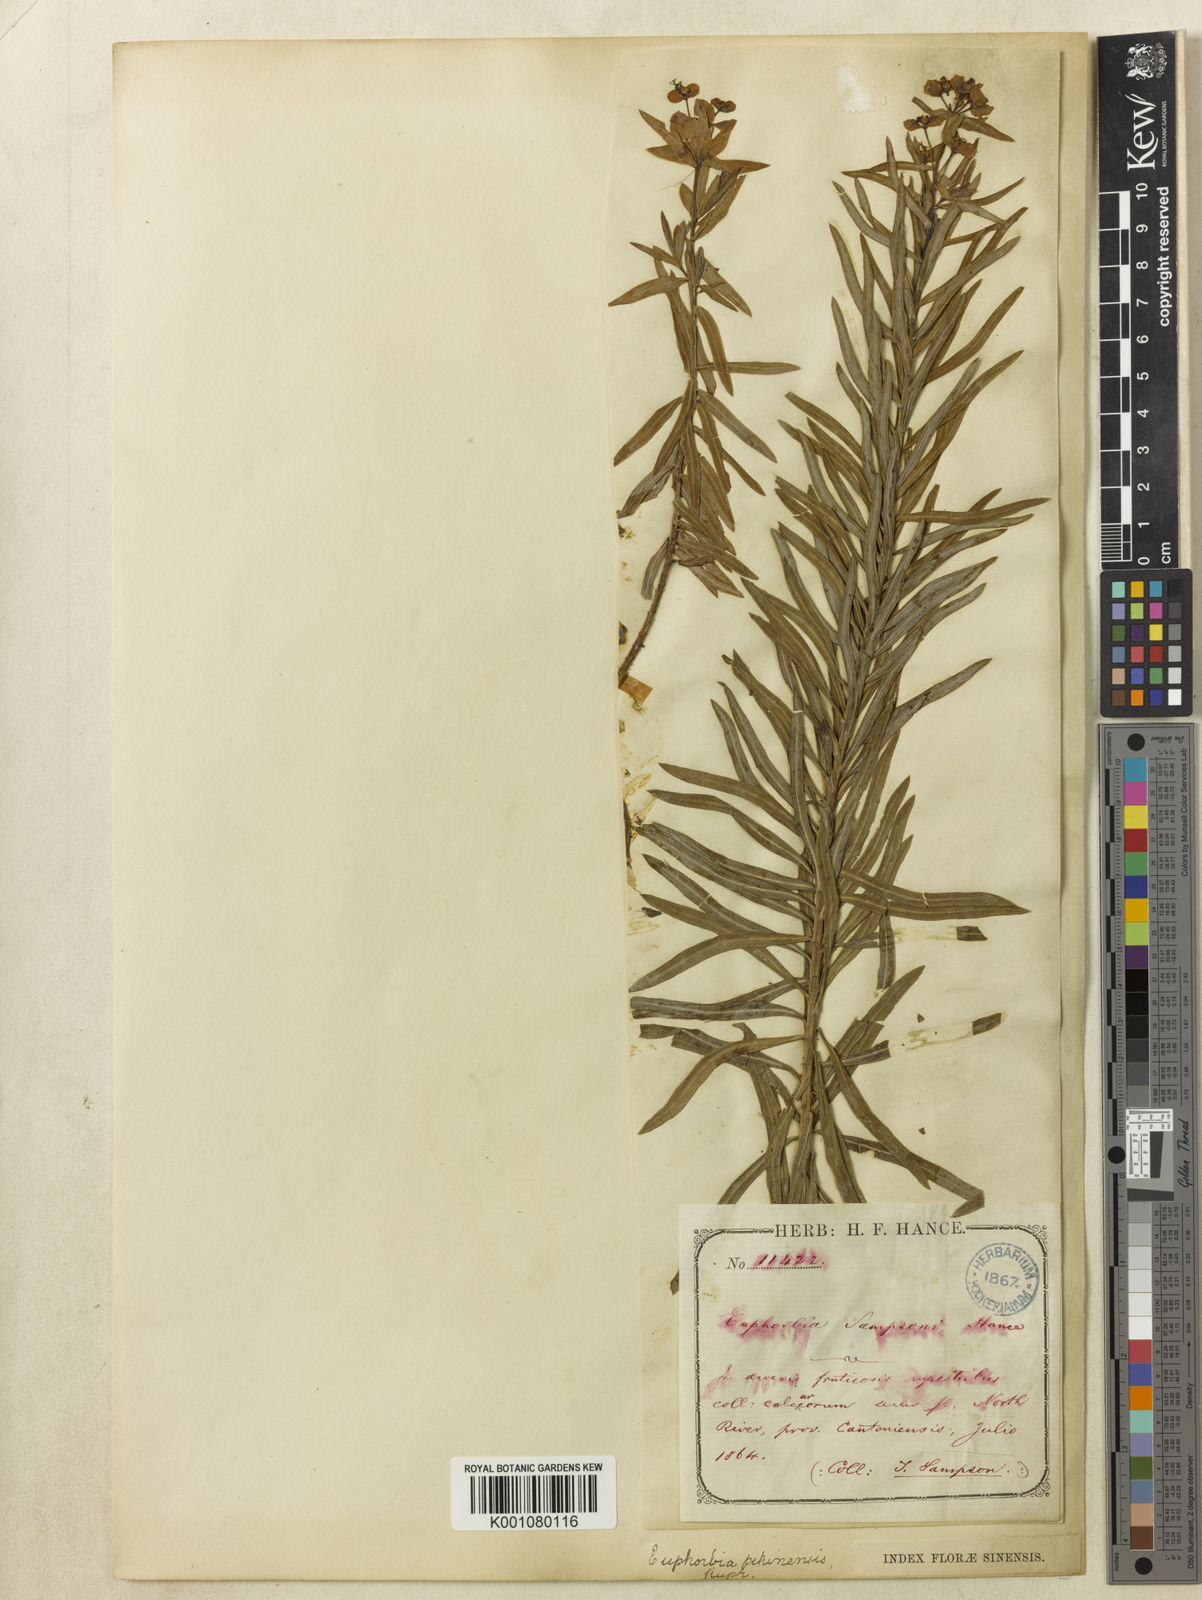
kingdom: Plantae
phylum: Tracheophyta
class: Magnoliopsida
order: Malpighiales
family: Euphorbiaceae
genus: Euphorbia
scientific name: Euphorbia pekinensis
